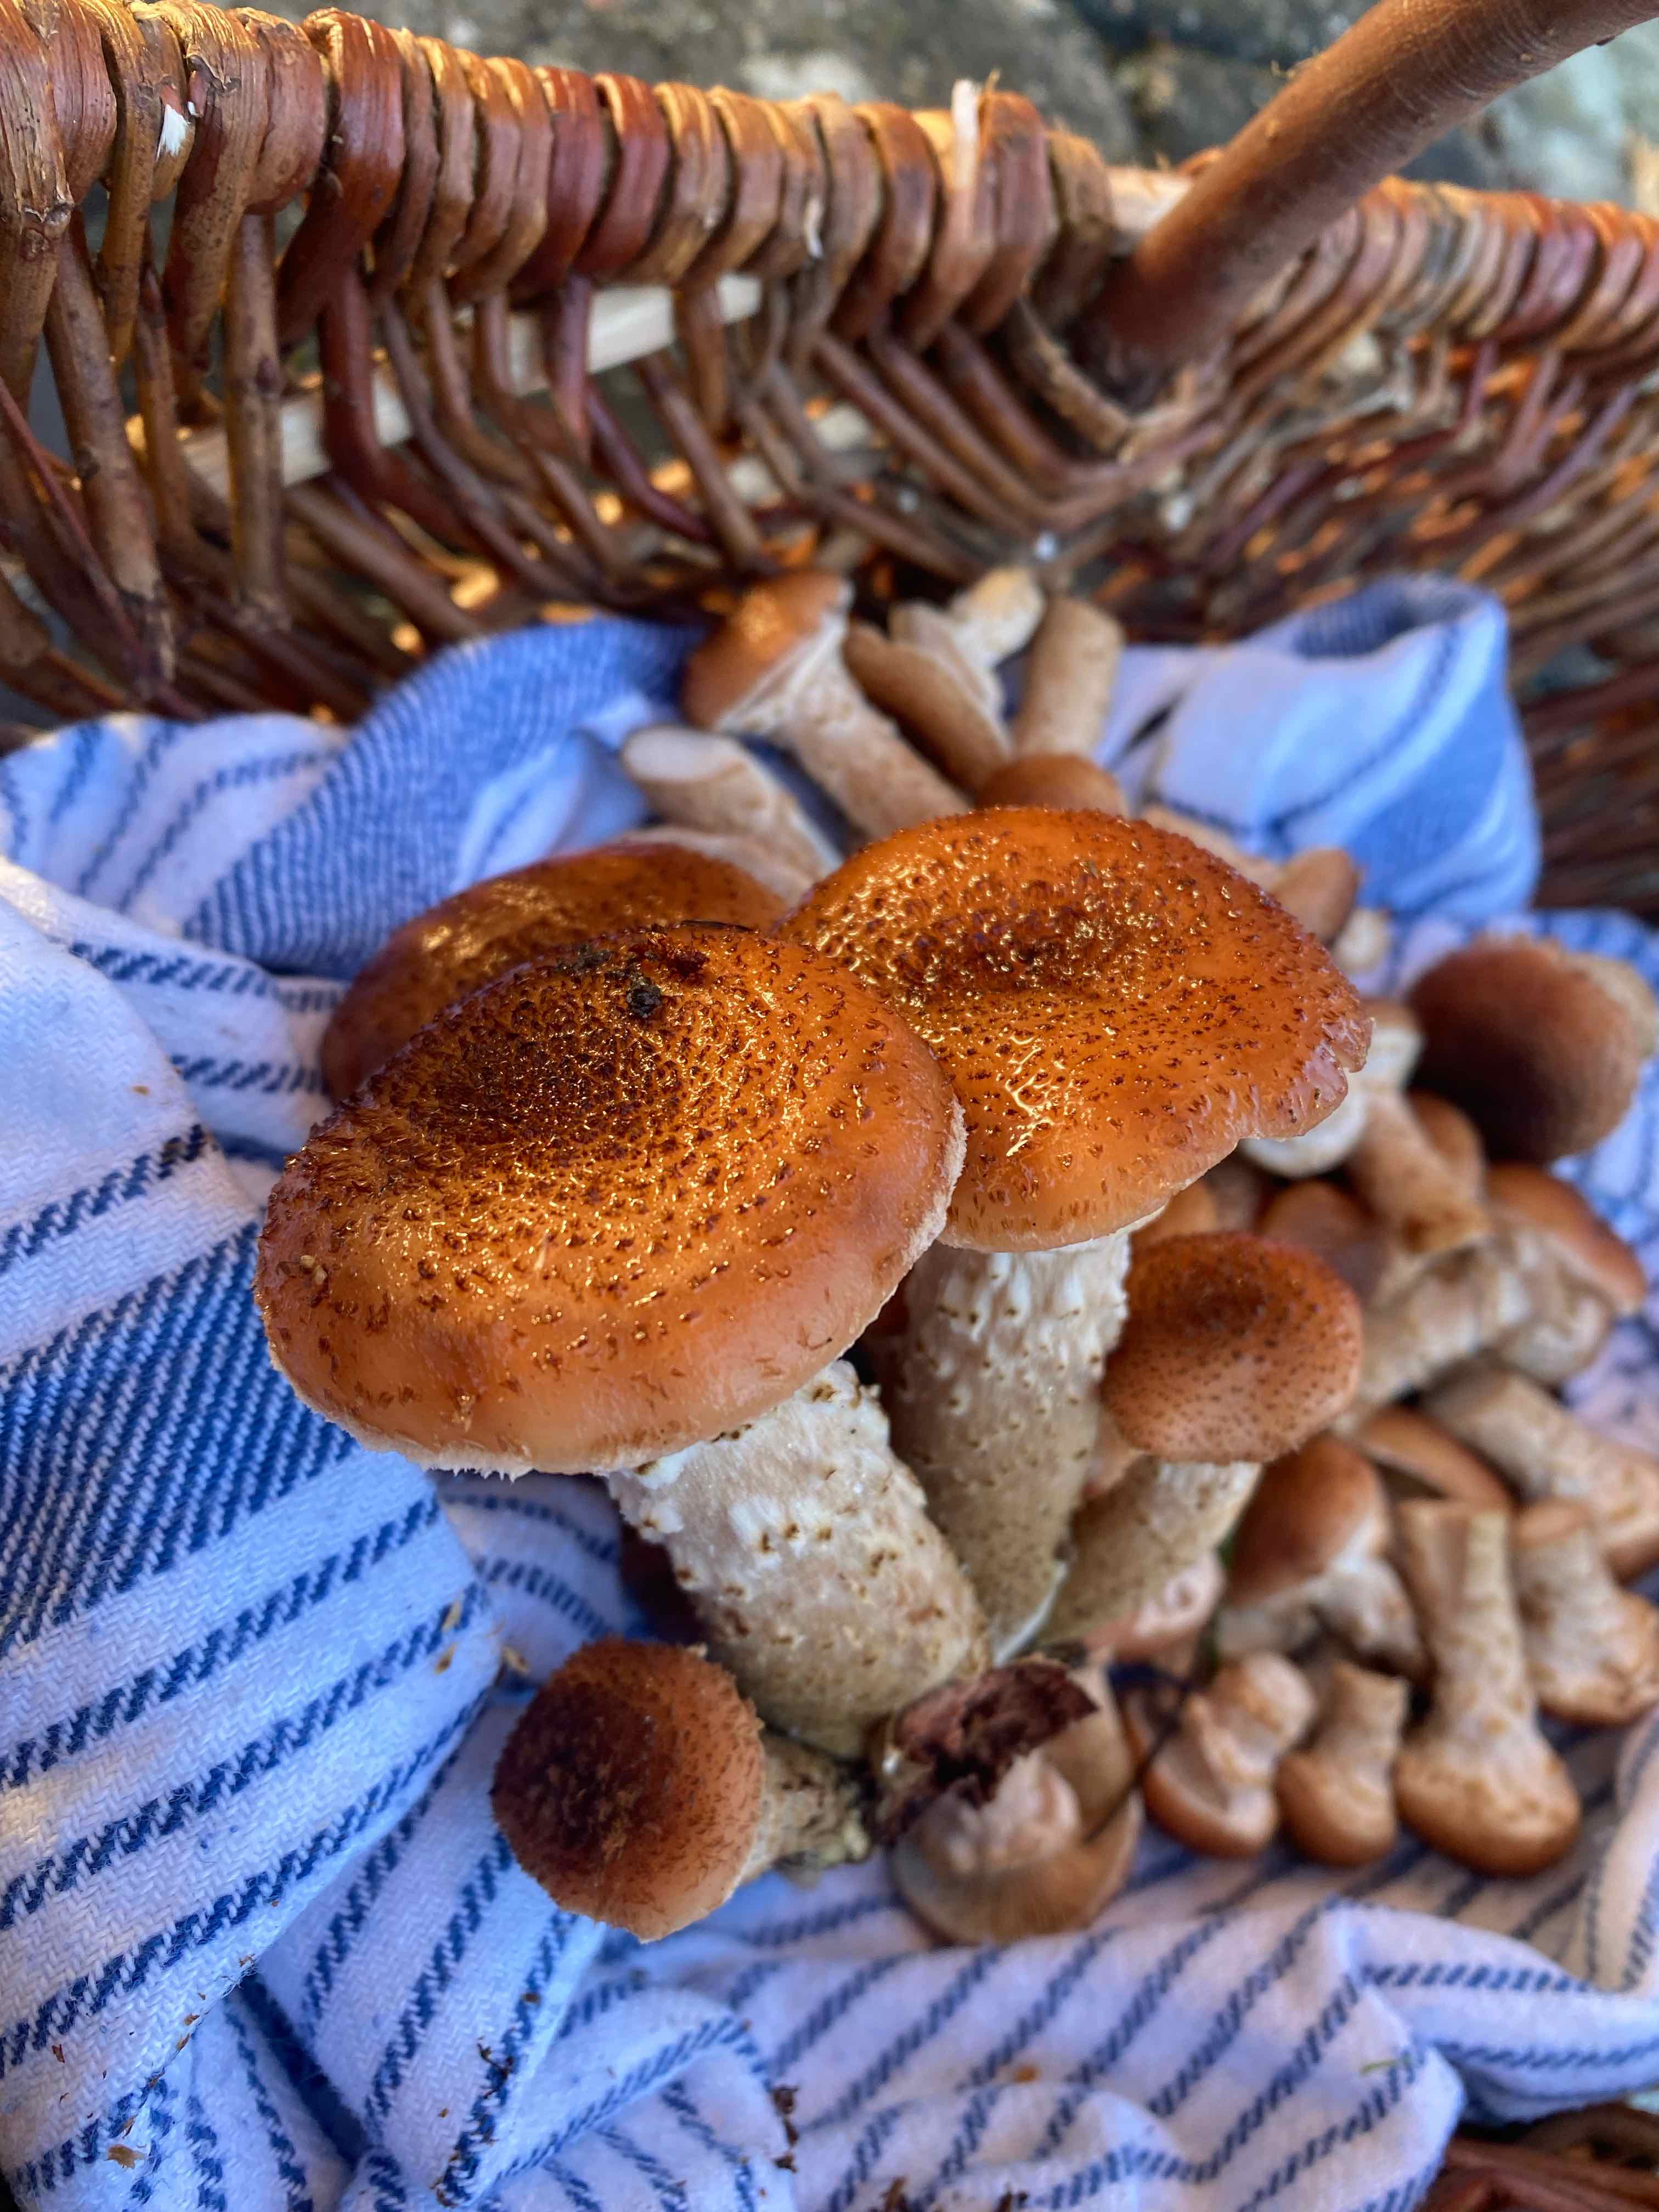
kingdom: Fungi
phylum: Basidiomycota
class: Agaricomycetes
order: Agaricales
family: Physalacriaceae
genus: Armillaria
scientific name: Armillaria ostoyae
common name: mørk honningsvamp
